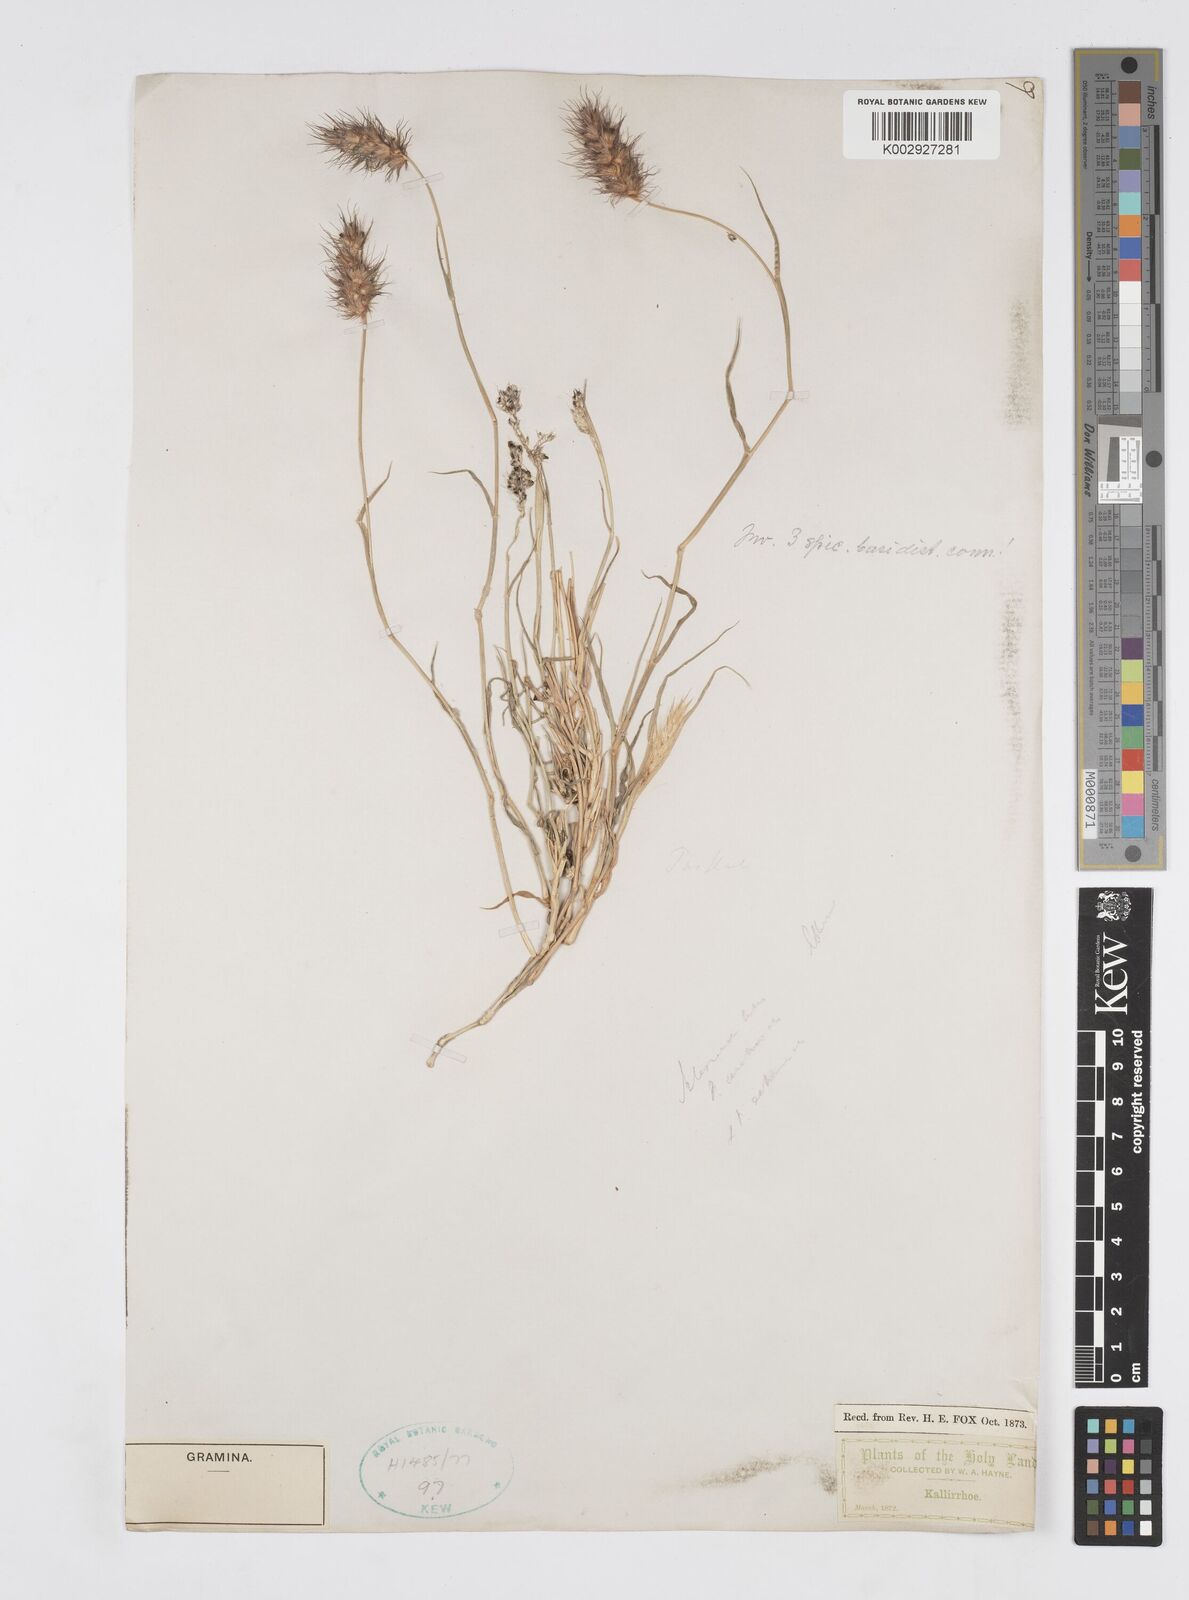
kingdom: Plantae
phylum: Tracheophyta
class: Liliopsida
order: Poales
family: Poaceae
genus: Cenchrus
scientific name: Cenchrus ciliaris
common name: Buffelgrass
